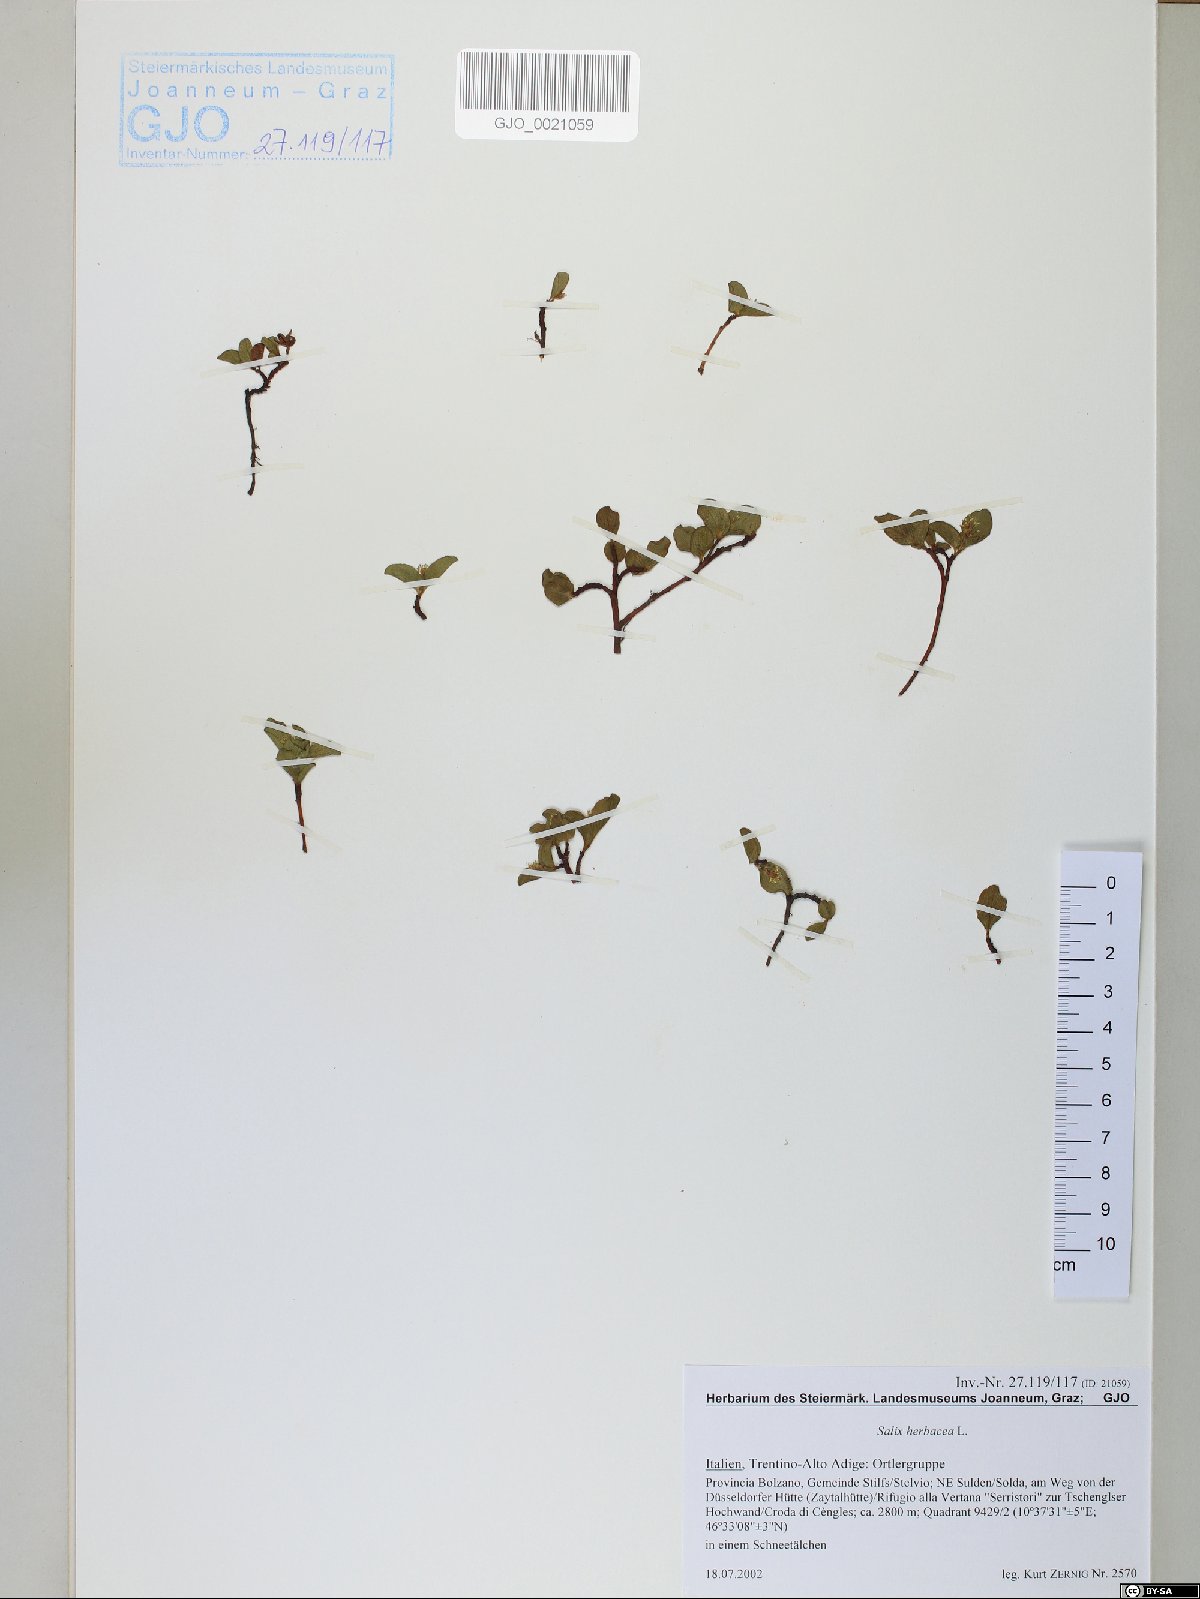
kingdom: Plantae
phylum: Tracheophyta
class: Magnoliopsida
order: Malpighiales
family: Salicaceae
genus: Salix
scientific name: Salix herbacea
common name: Dwarf willow
